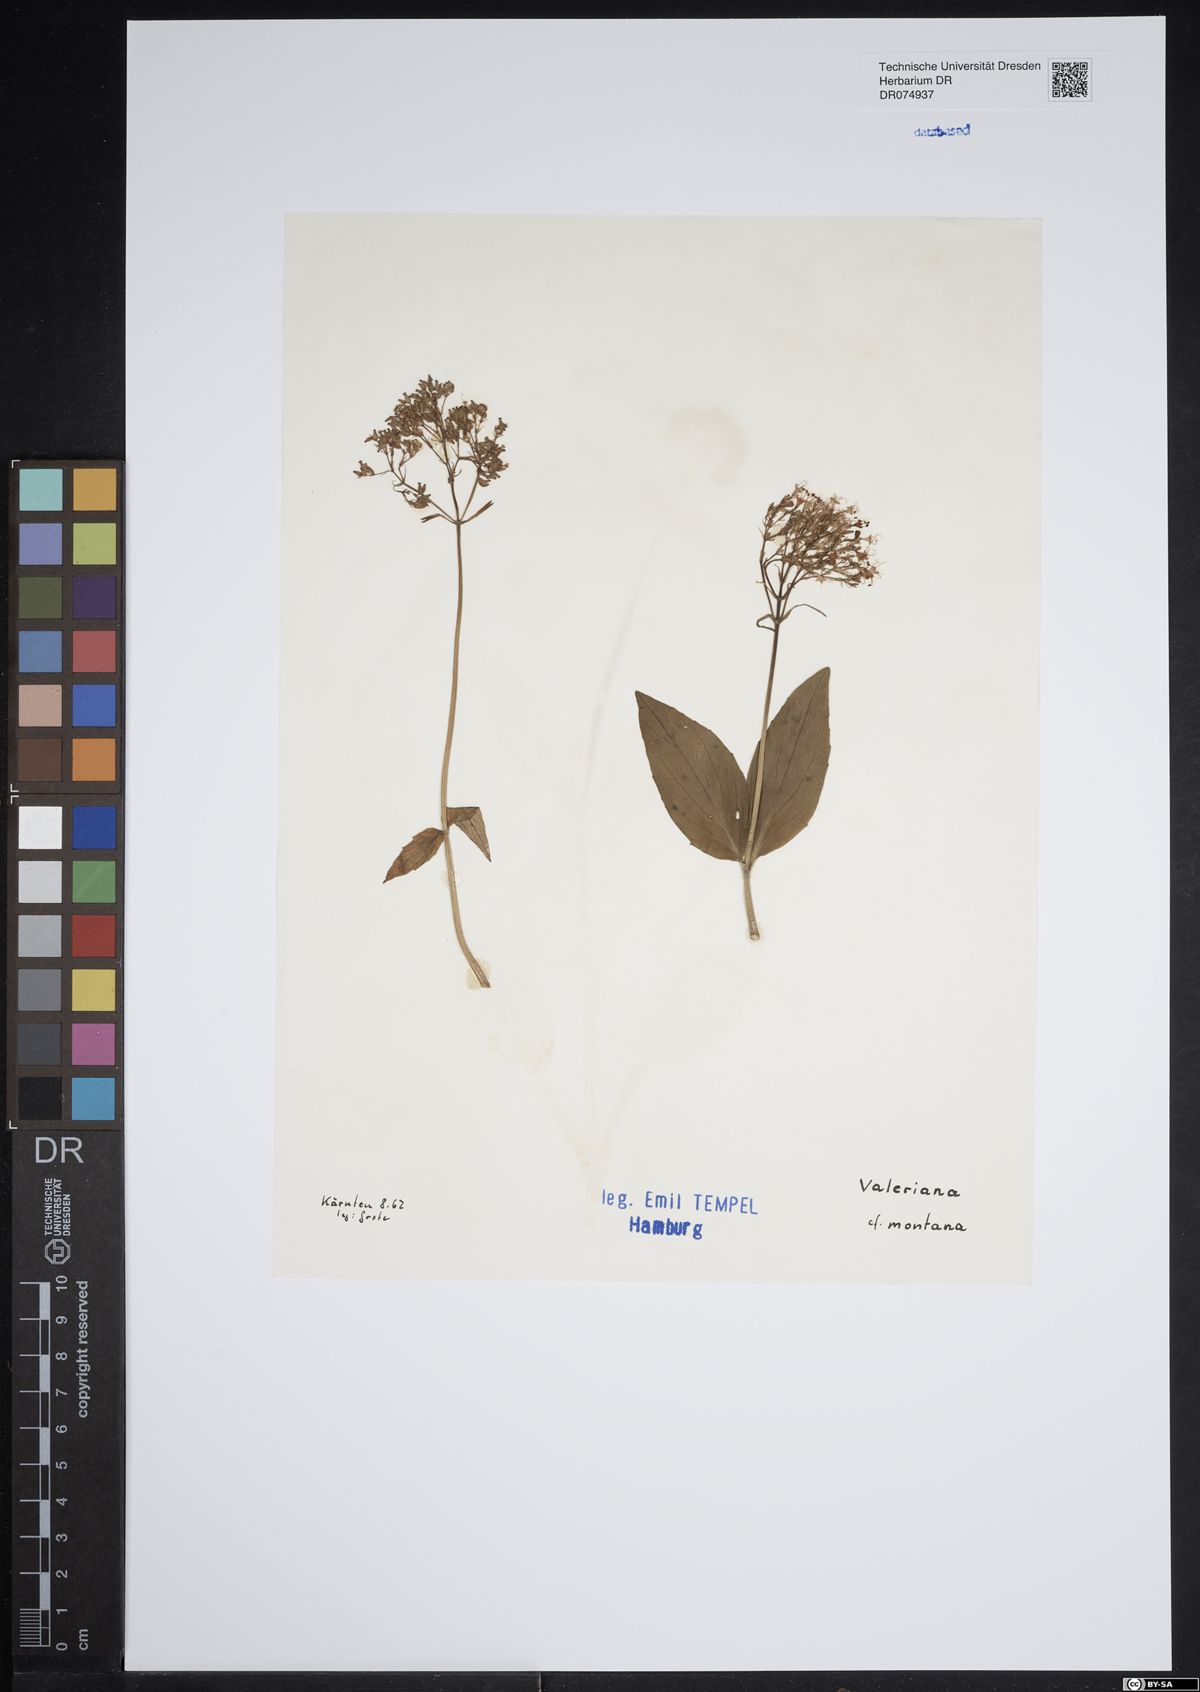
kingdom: Plantae
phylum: Tracheophyta
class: Magnoliopsida
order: Dipsacales
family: Caprifoliaceae
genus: Valeriana
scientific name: Valeriana montana
